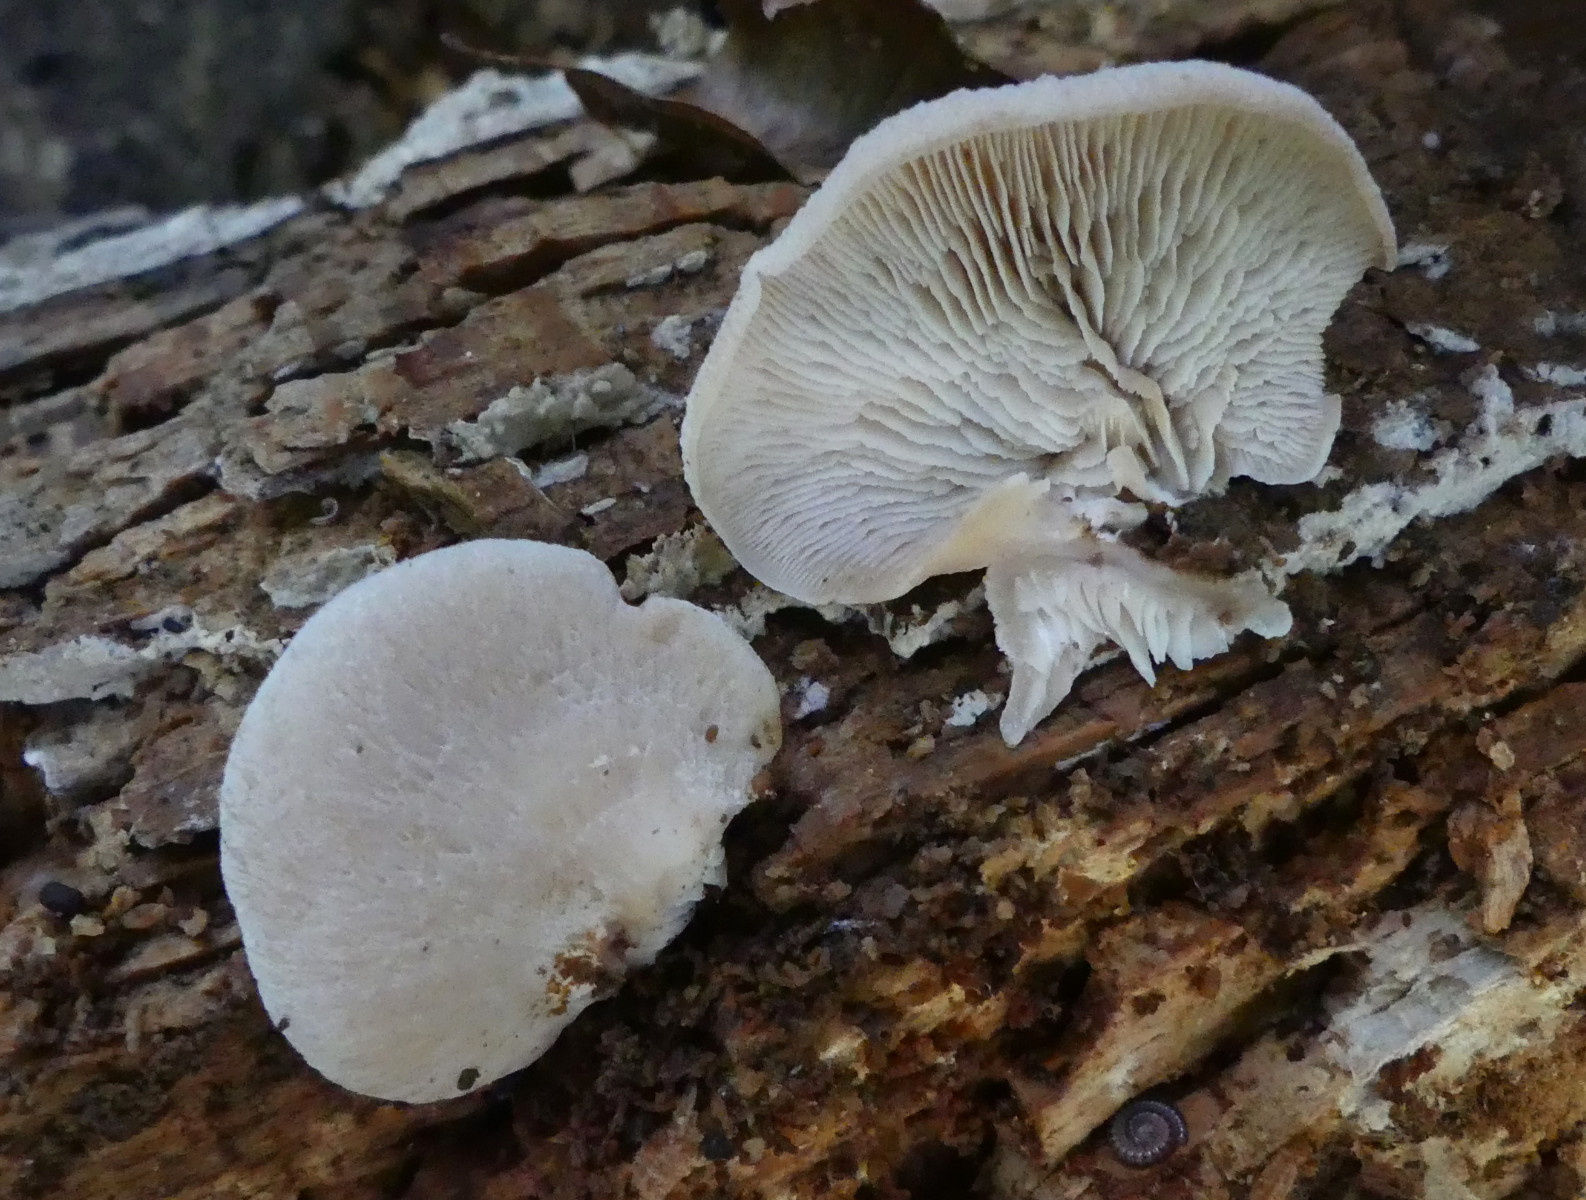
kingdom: Fungi
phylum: Basidiomycota
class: Agaricomycetes
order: Russulales
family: Auriscalpiaceae
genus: Lentinellus
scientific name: Lentinellus ursinus
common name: børstehåret savbladhat
